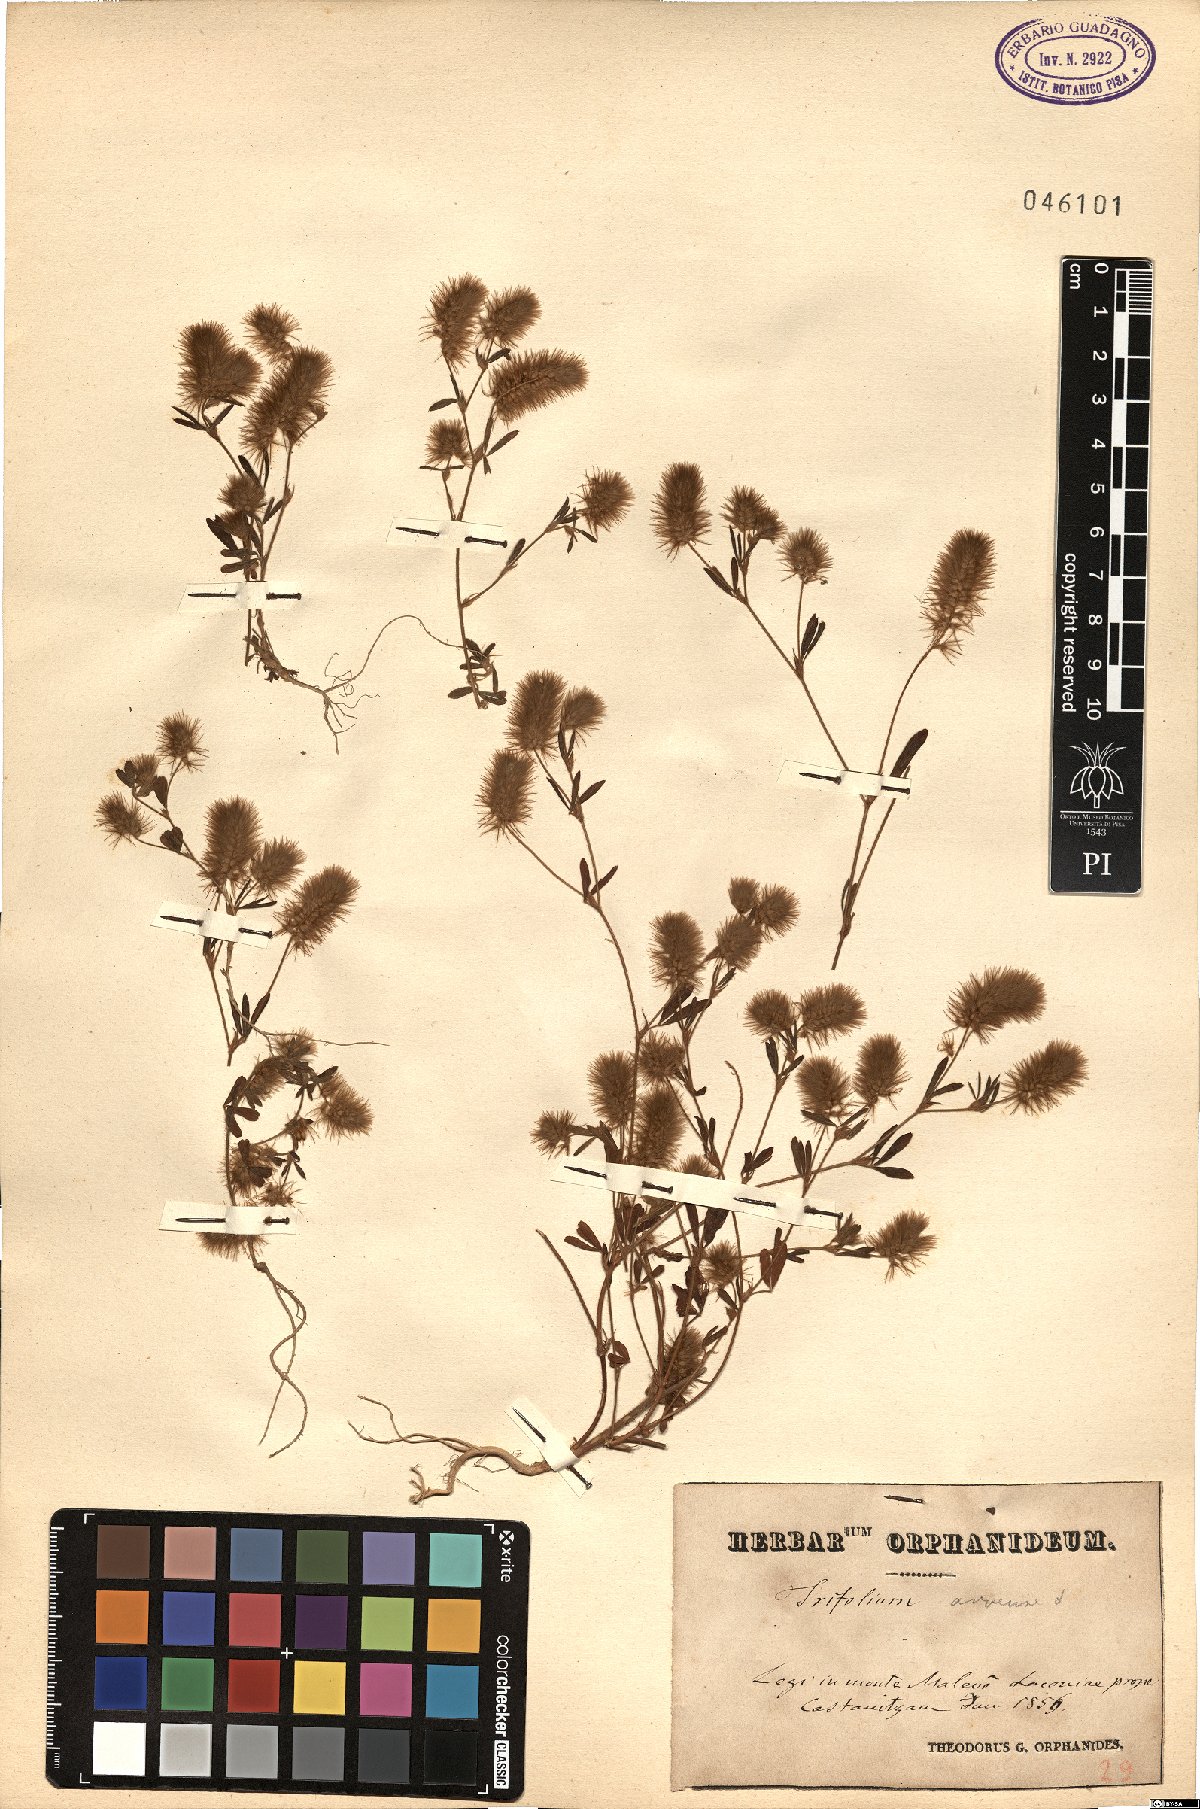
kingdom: Plantae
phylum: Tracheophyta
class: Magnoliopsida
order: Fabales
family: Fabaceae
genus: Trifolium
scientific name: Trifolium arvense
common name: Hare's-foot clover
